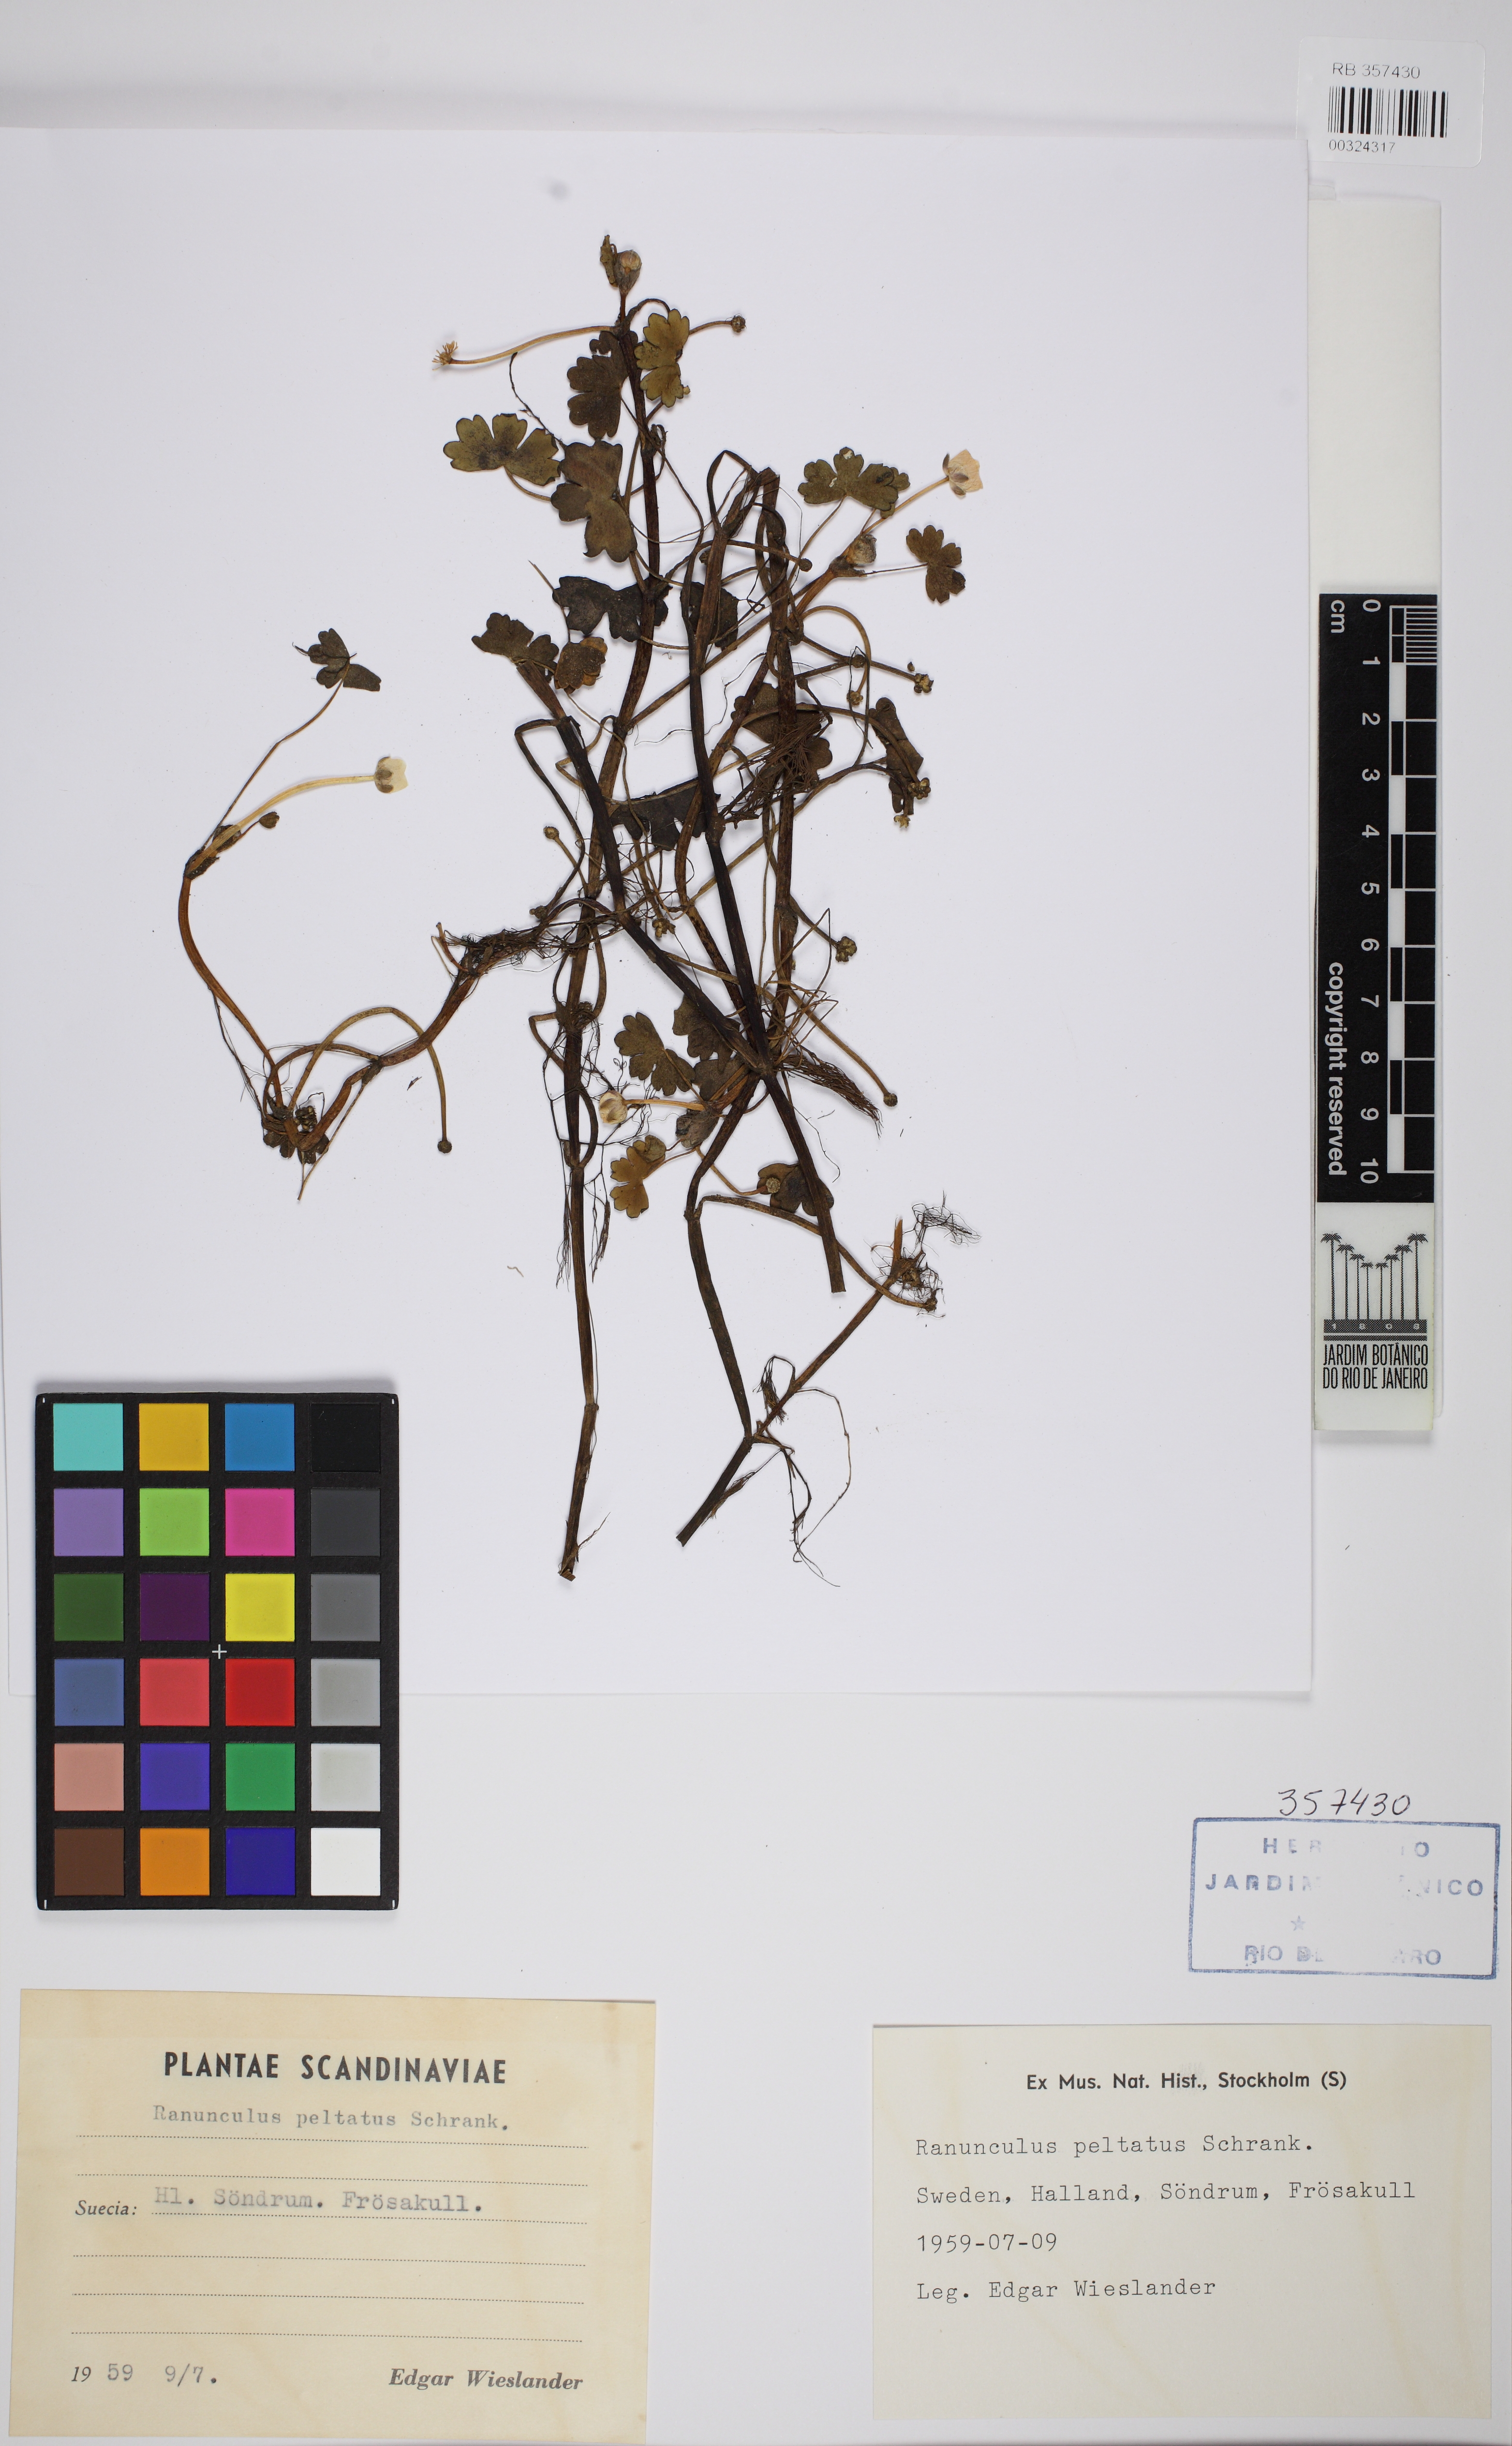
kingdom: Plantae
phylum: Tracheophyta
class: Magnoliopsida
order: Ranunculales
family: Ranunculaceae
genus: Ranunculus
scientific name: Ranunculus peltatus
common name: Pond water-crowfoot
